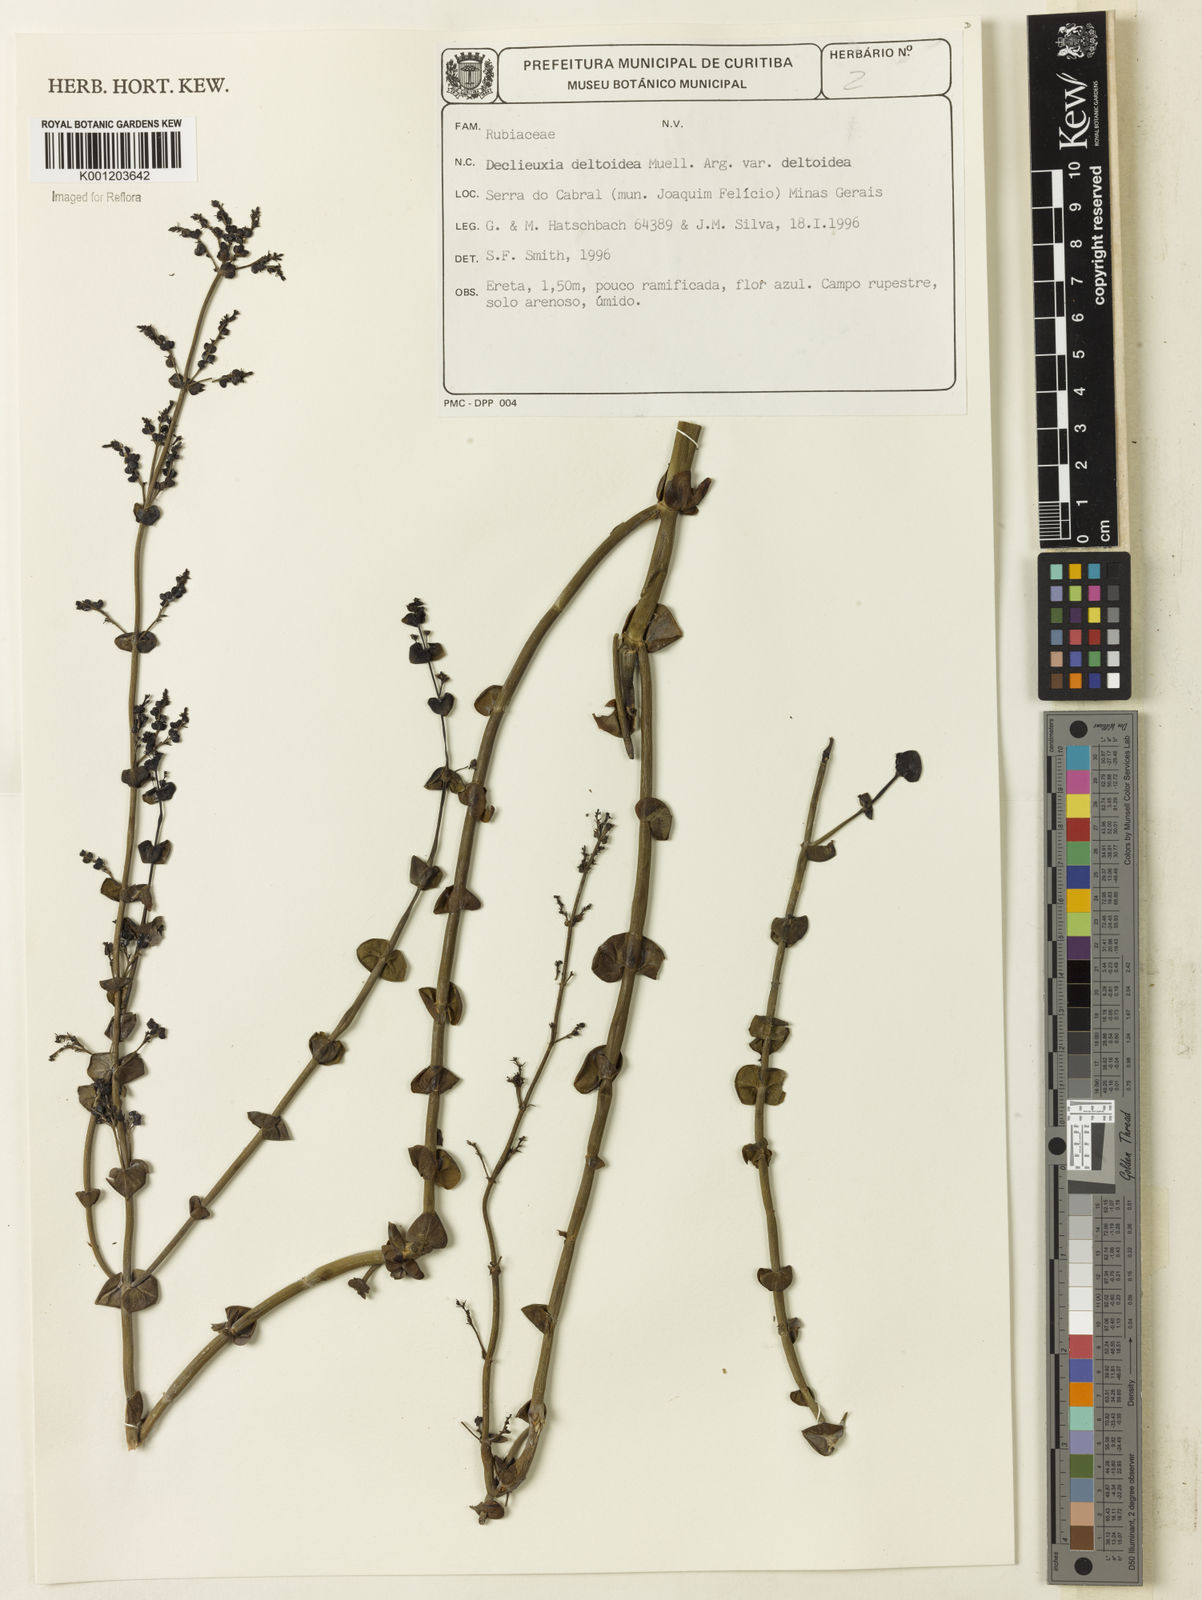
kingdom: Plantae
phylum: Tracheophyta
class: Magnoliopsida
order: Gentianales
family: Rubiaceae
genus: Declieuxia
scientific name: Declieuxia
